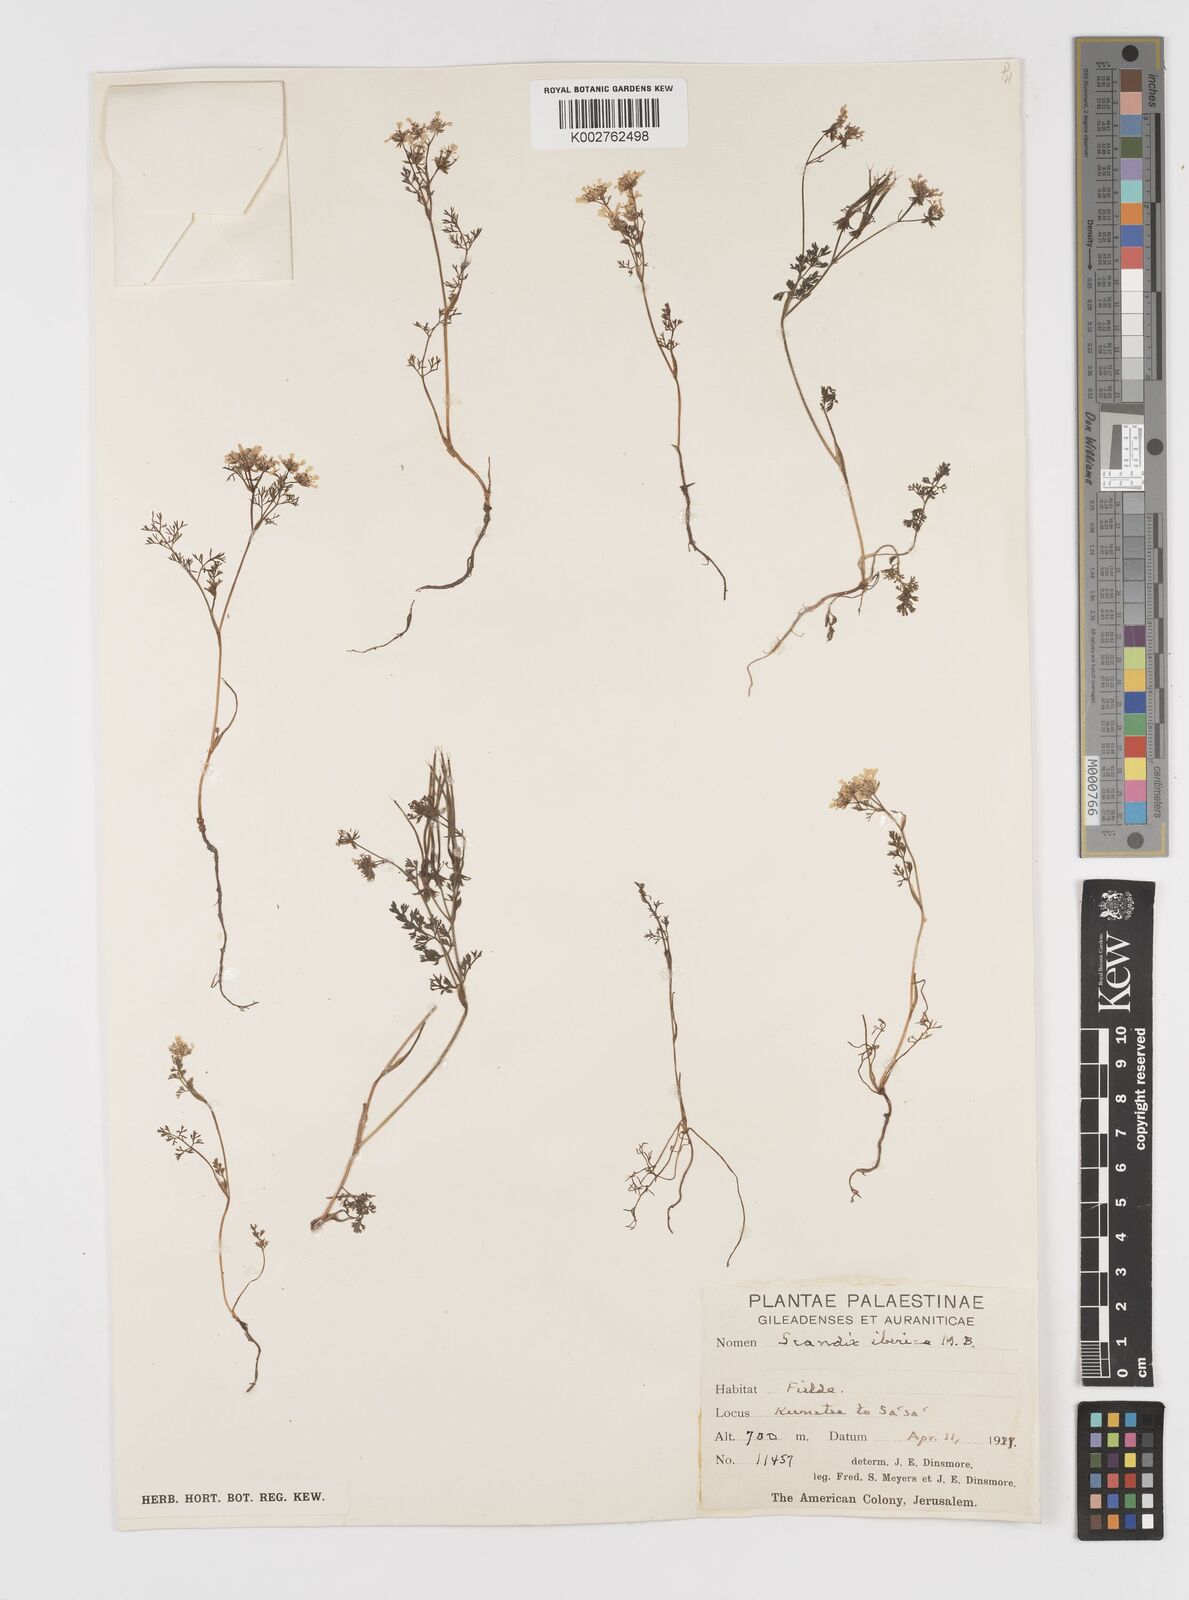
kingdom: Plantae
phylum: Tracheophyta
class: Magnoliopsida
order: Apiales
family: Apiaceae
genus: Scandix
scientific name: Scandix iberica
